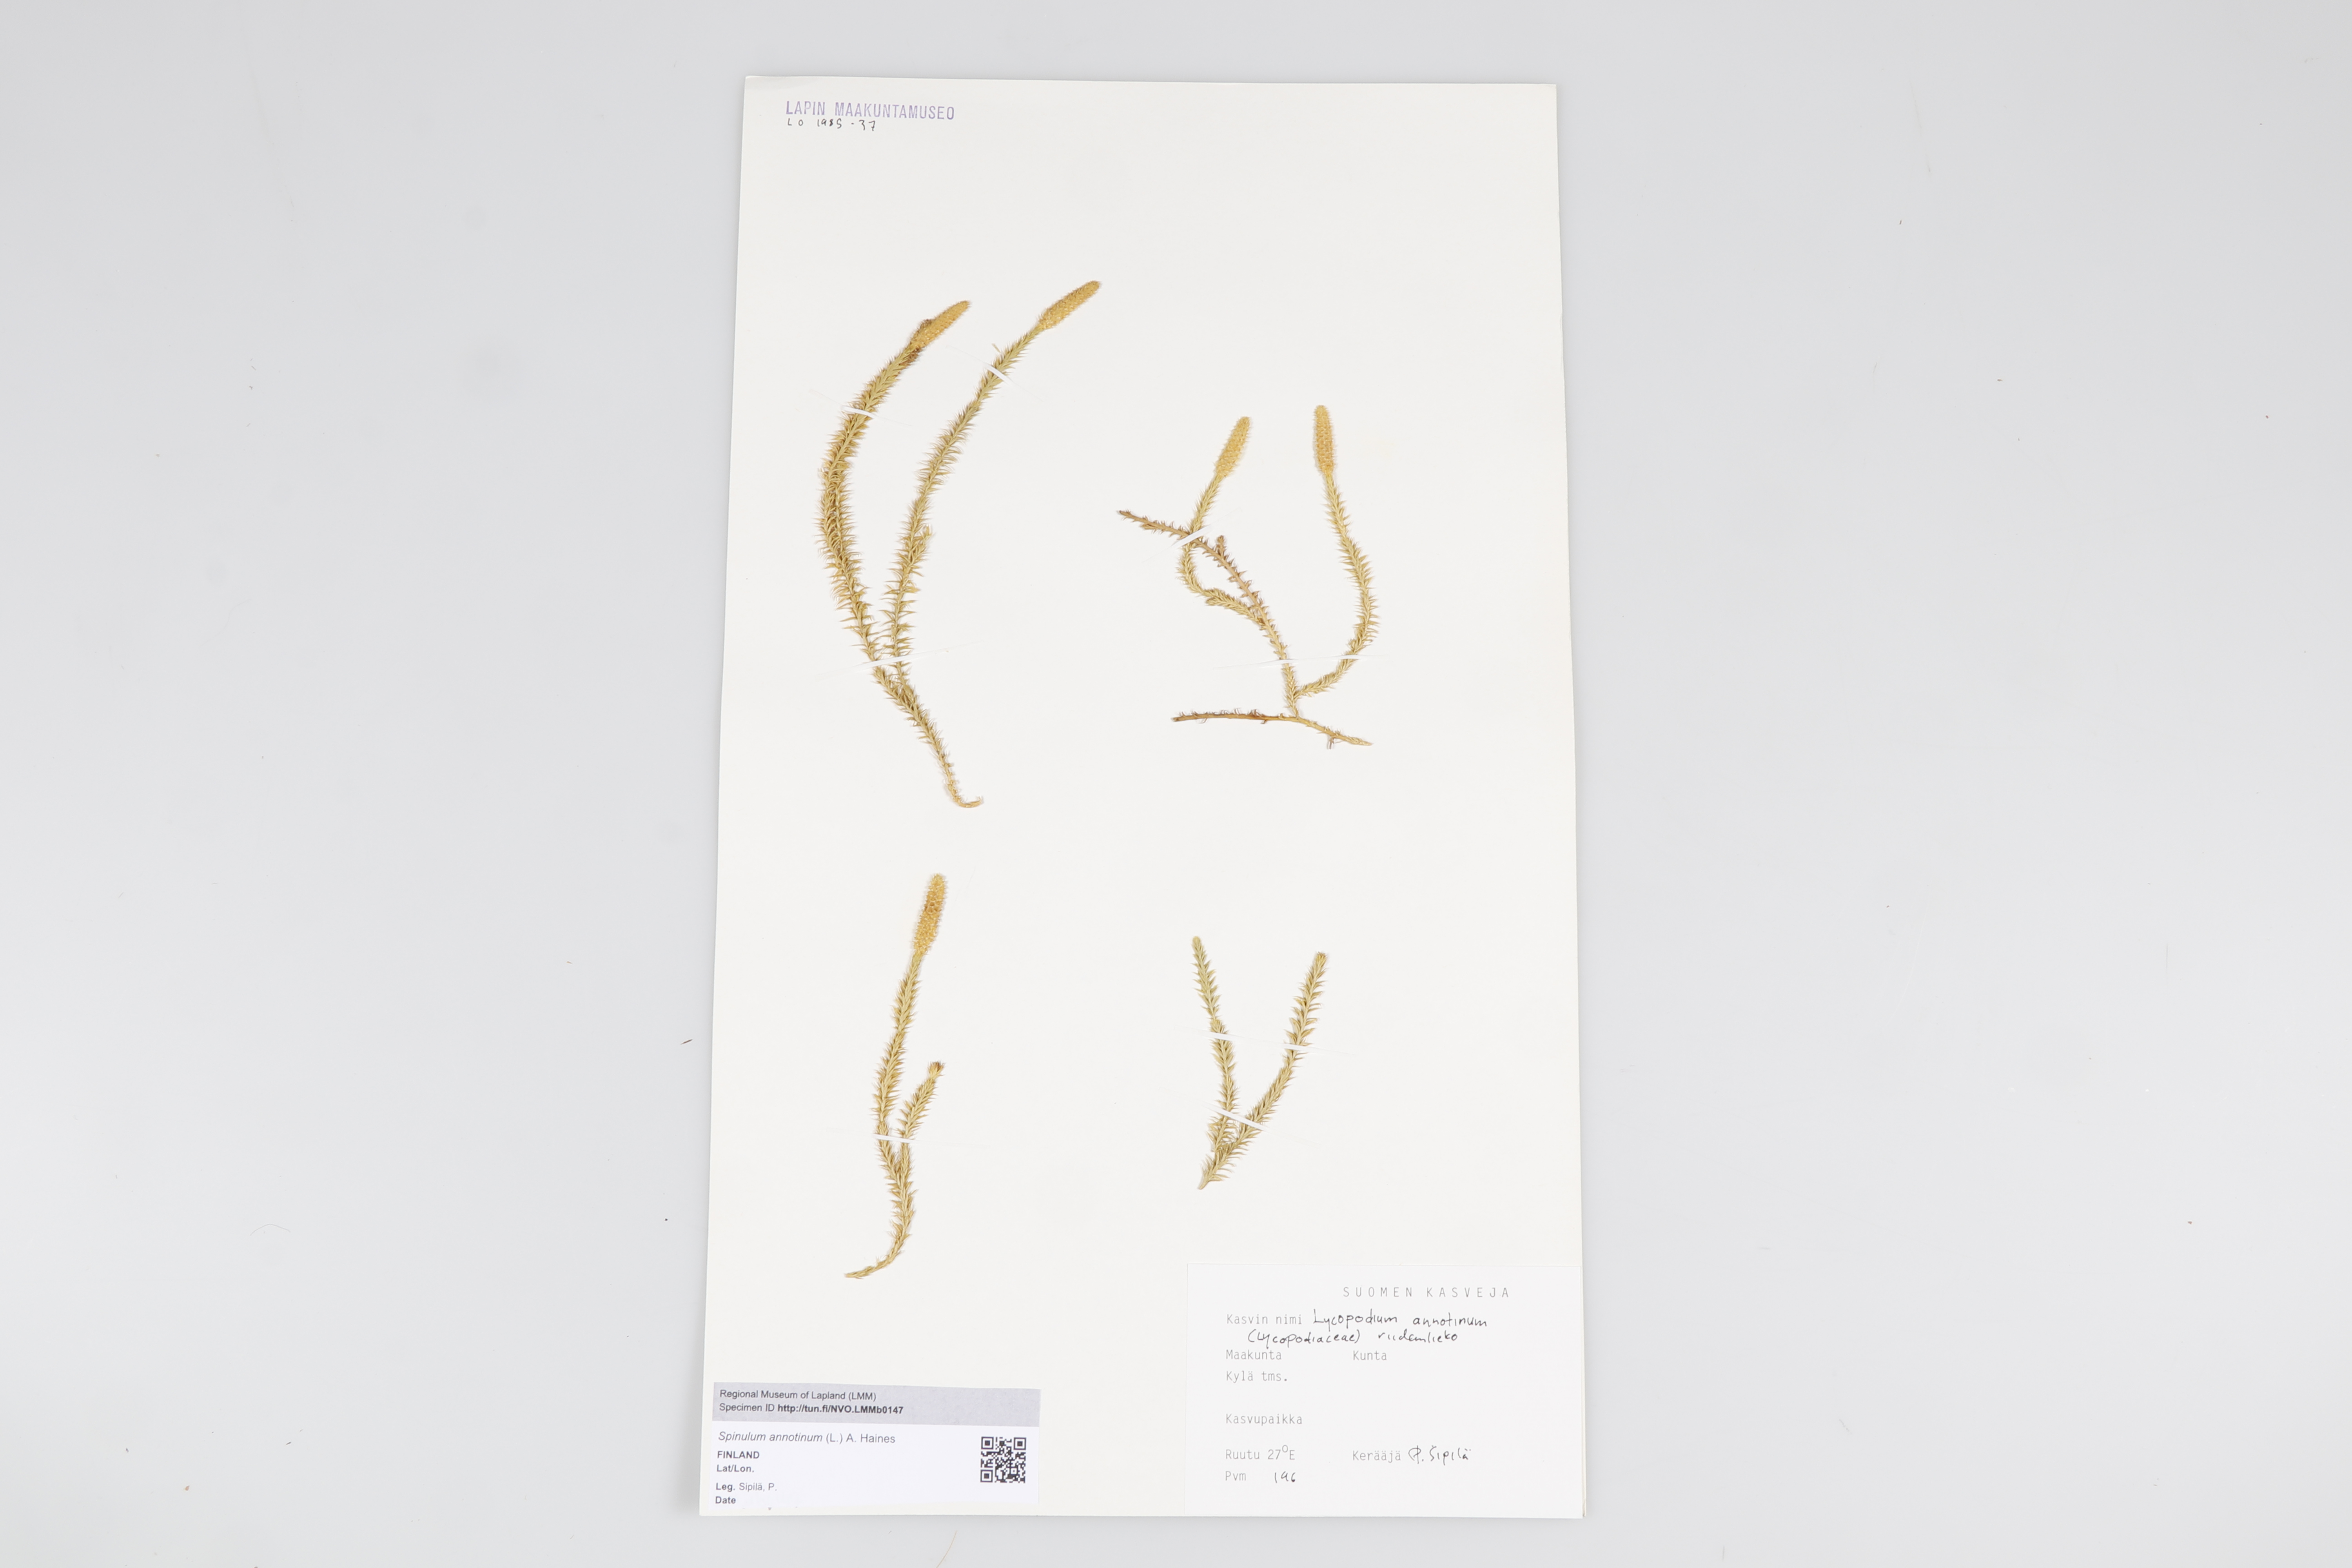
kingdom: Plantae
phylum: Tracheophyta
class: Lycopodiopsida
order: Lycopodiales
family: Lycopodiaceae
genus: Spinulum
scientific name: Spinulum annotinum
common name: Interrupted club-moss
